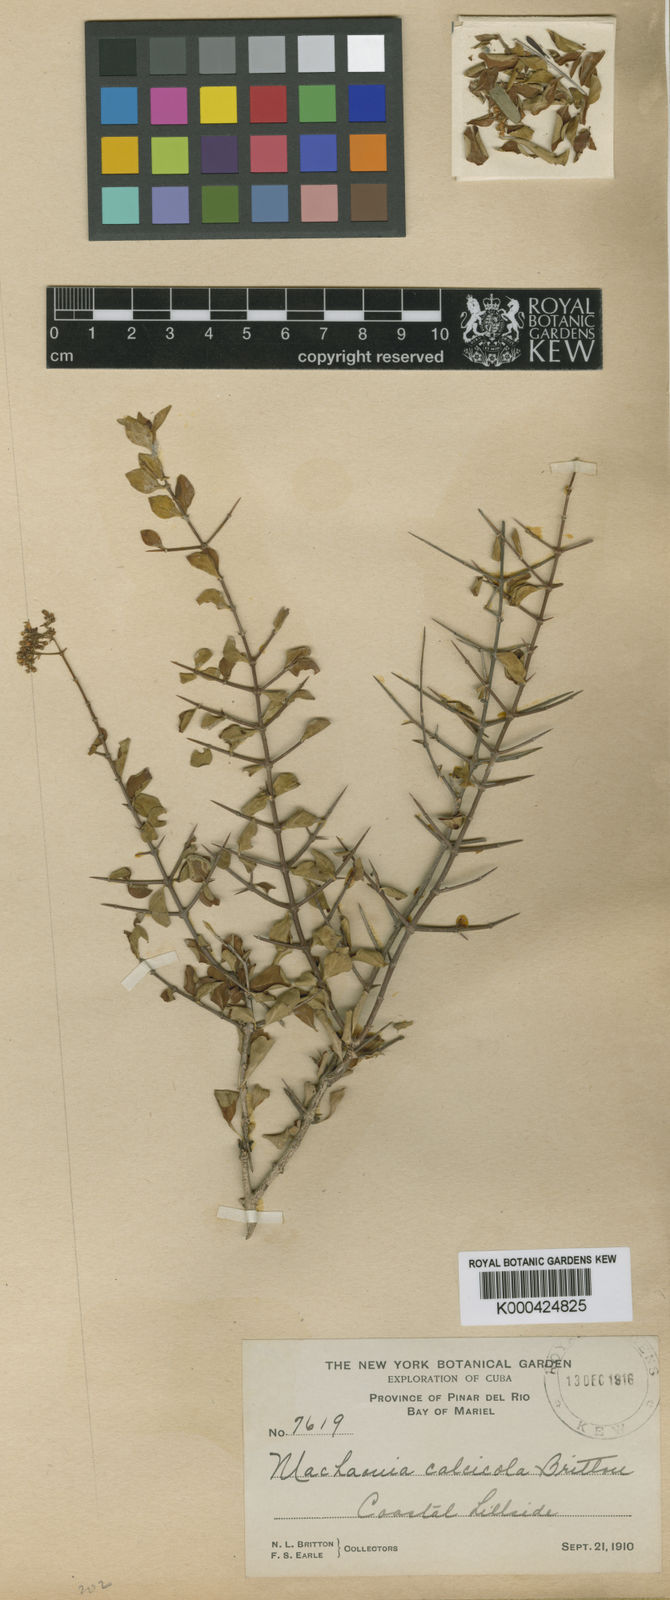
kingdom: Plantae
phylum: Tracheophyta
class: Magnoliopsida
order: Gentianales
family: Rubiaceae
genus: Machaonia
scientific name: Machaonia havanensis
